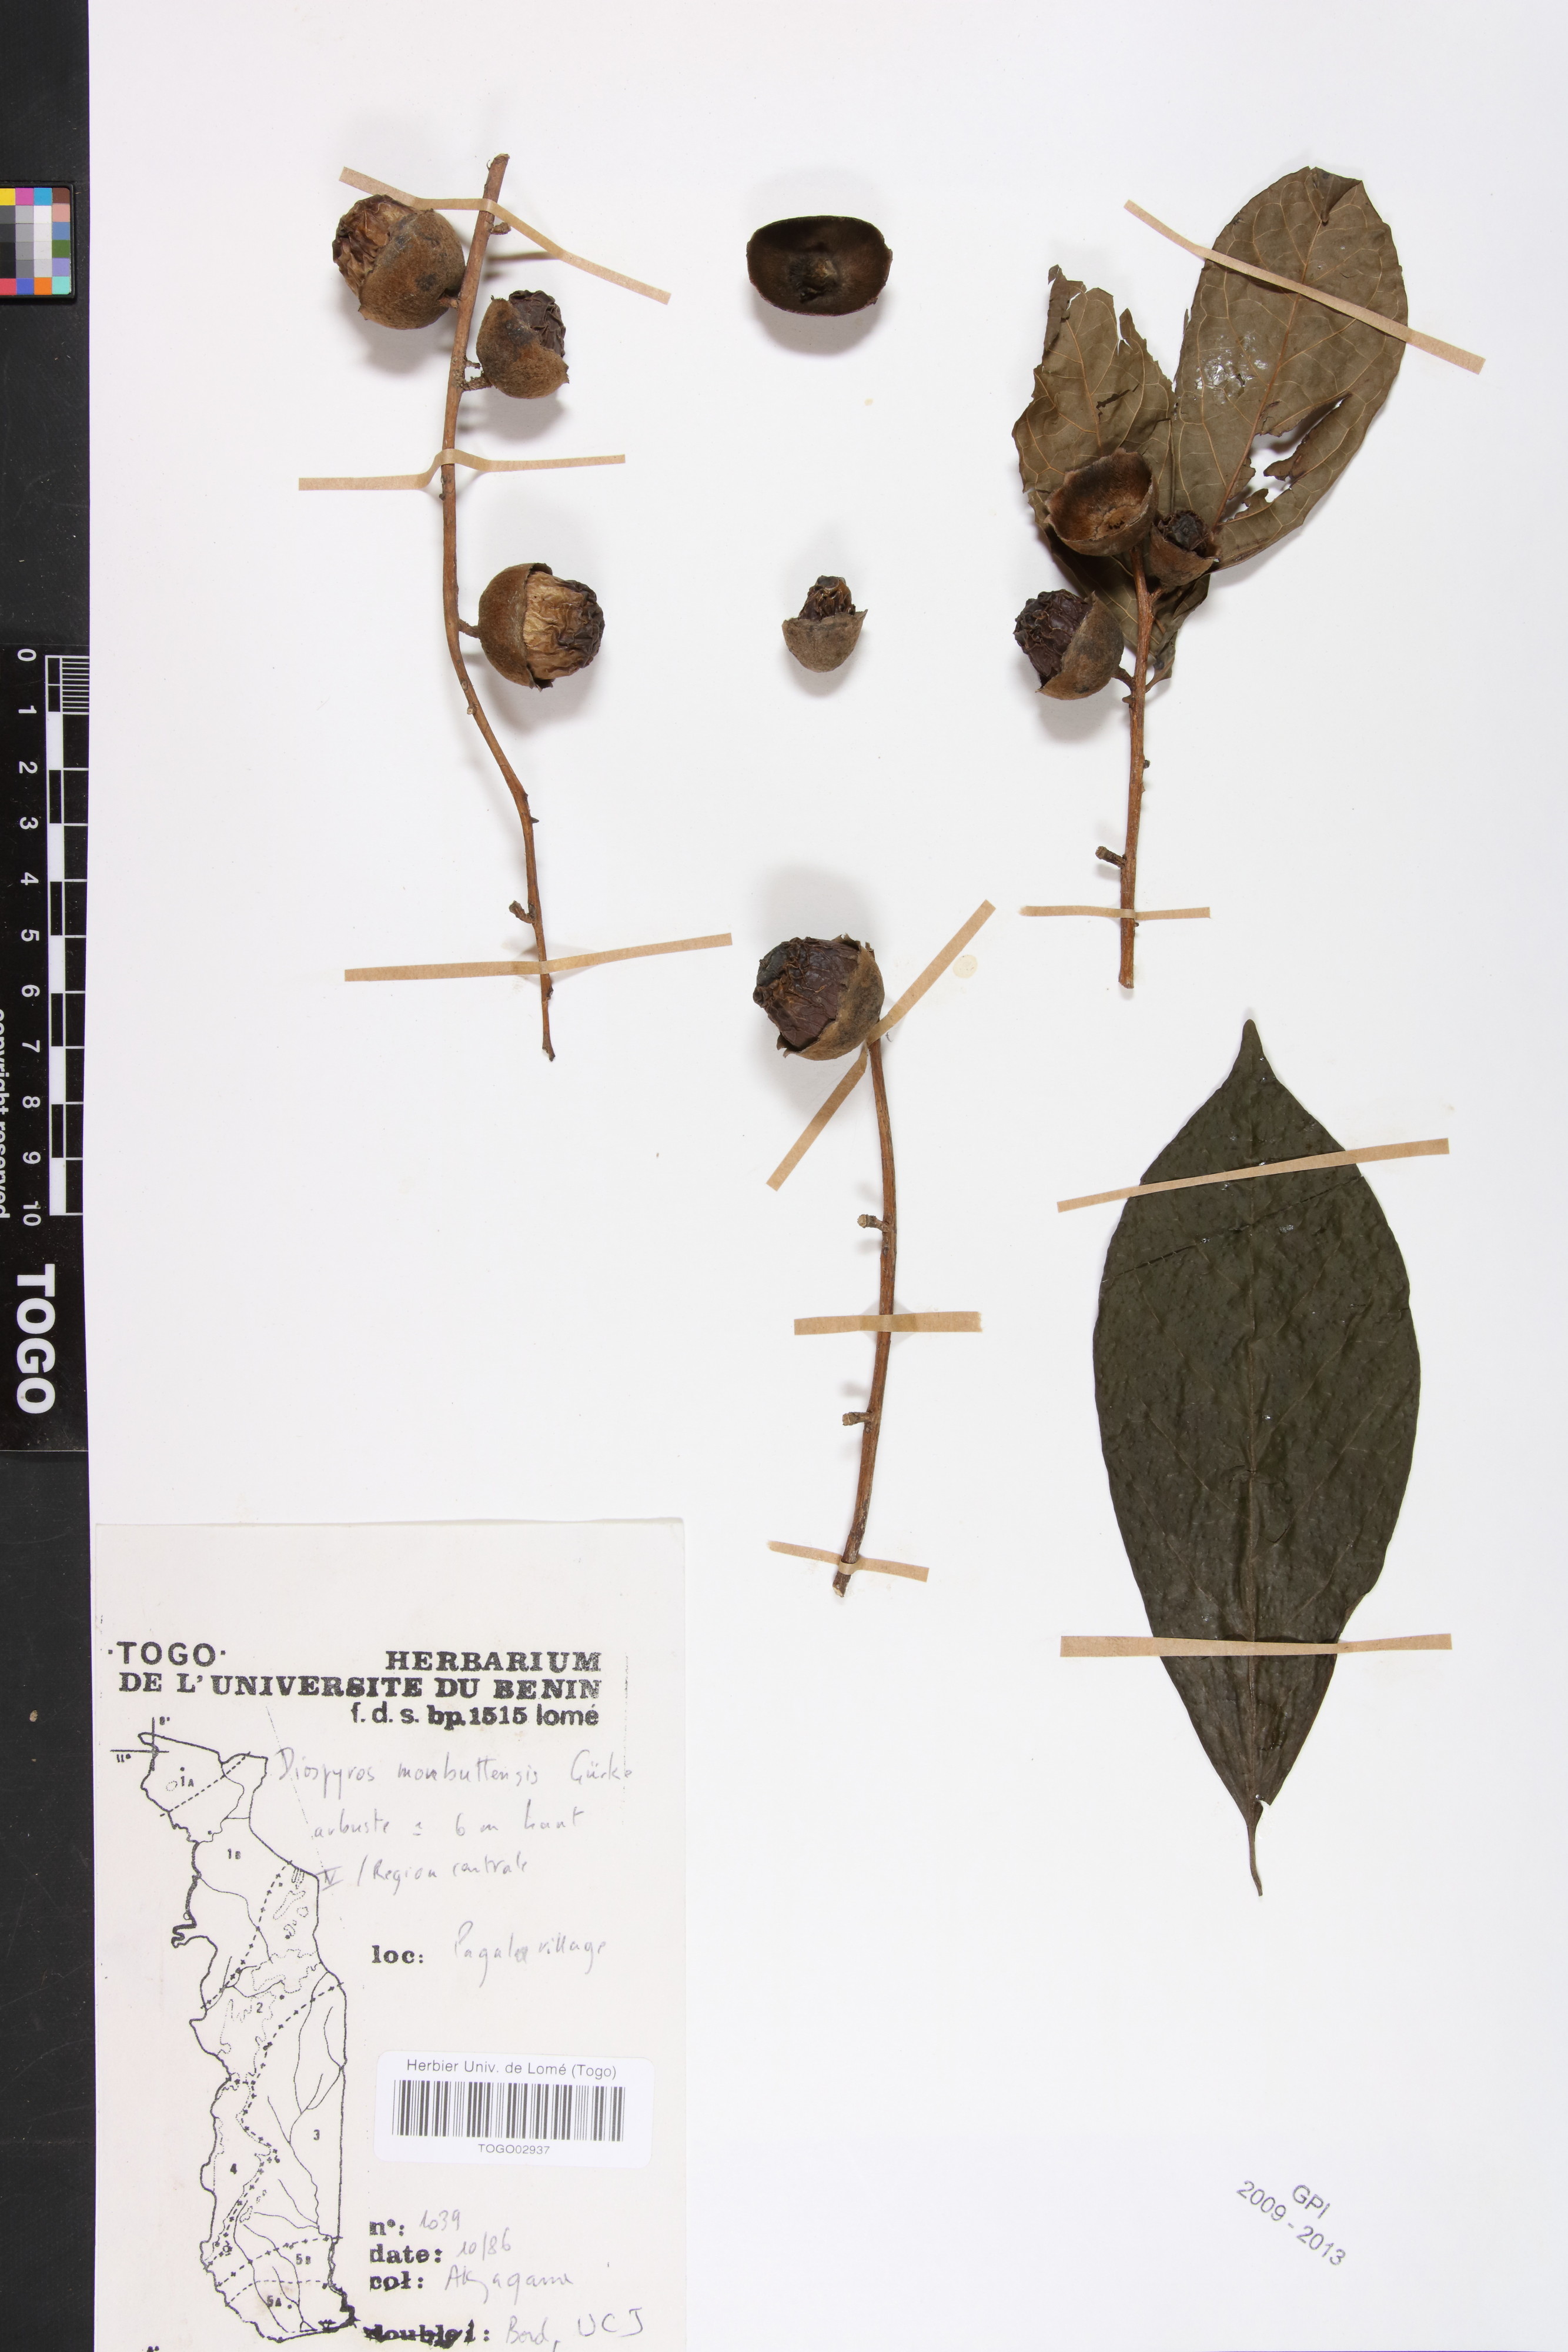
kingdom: Plantae
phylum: Tracheophyta
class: Magnoliopsida
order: Ericales
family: Ebenaceae
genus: Diospyros
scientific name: Diospyros monbuttensis
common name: Walking-stick ebony
